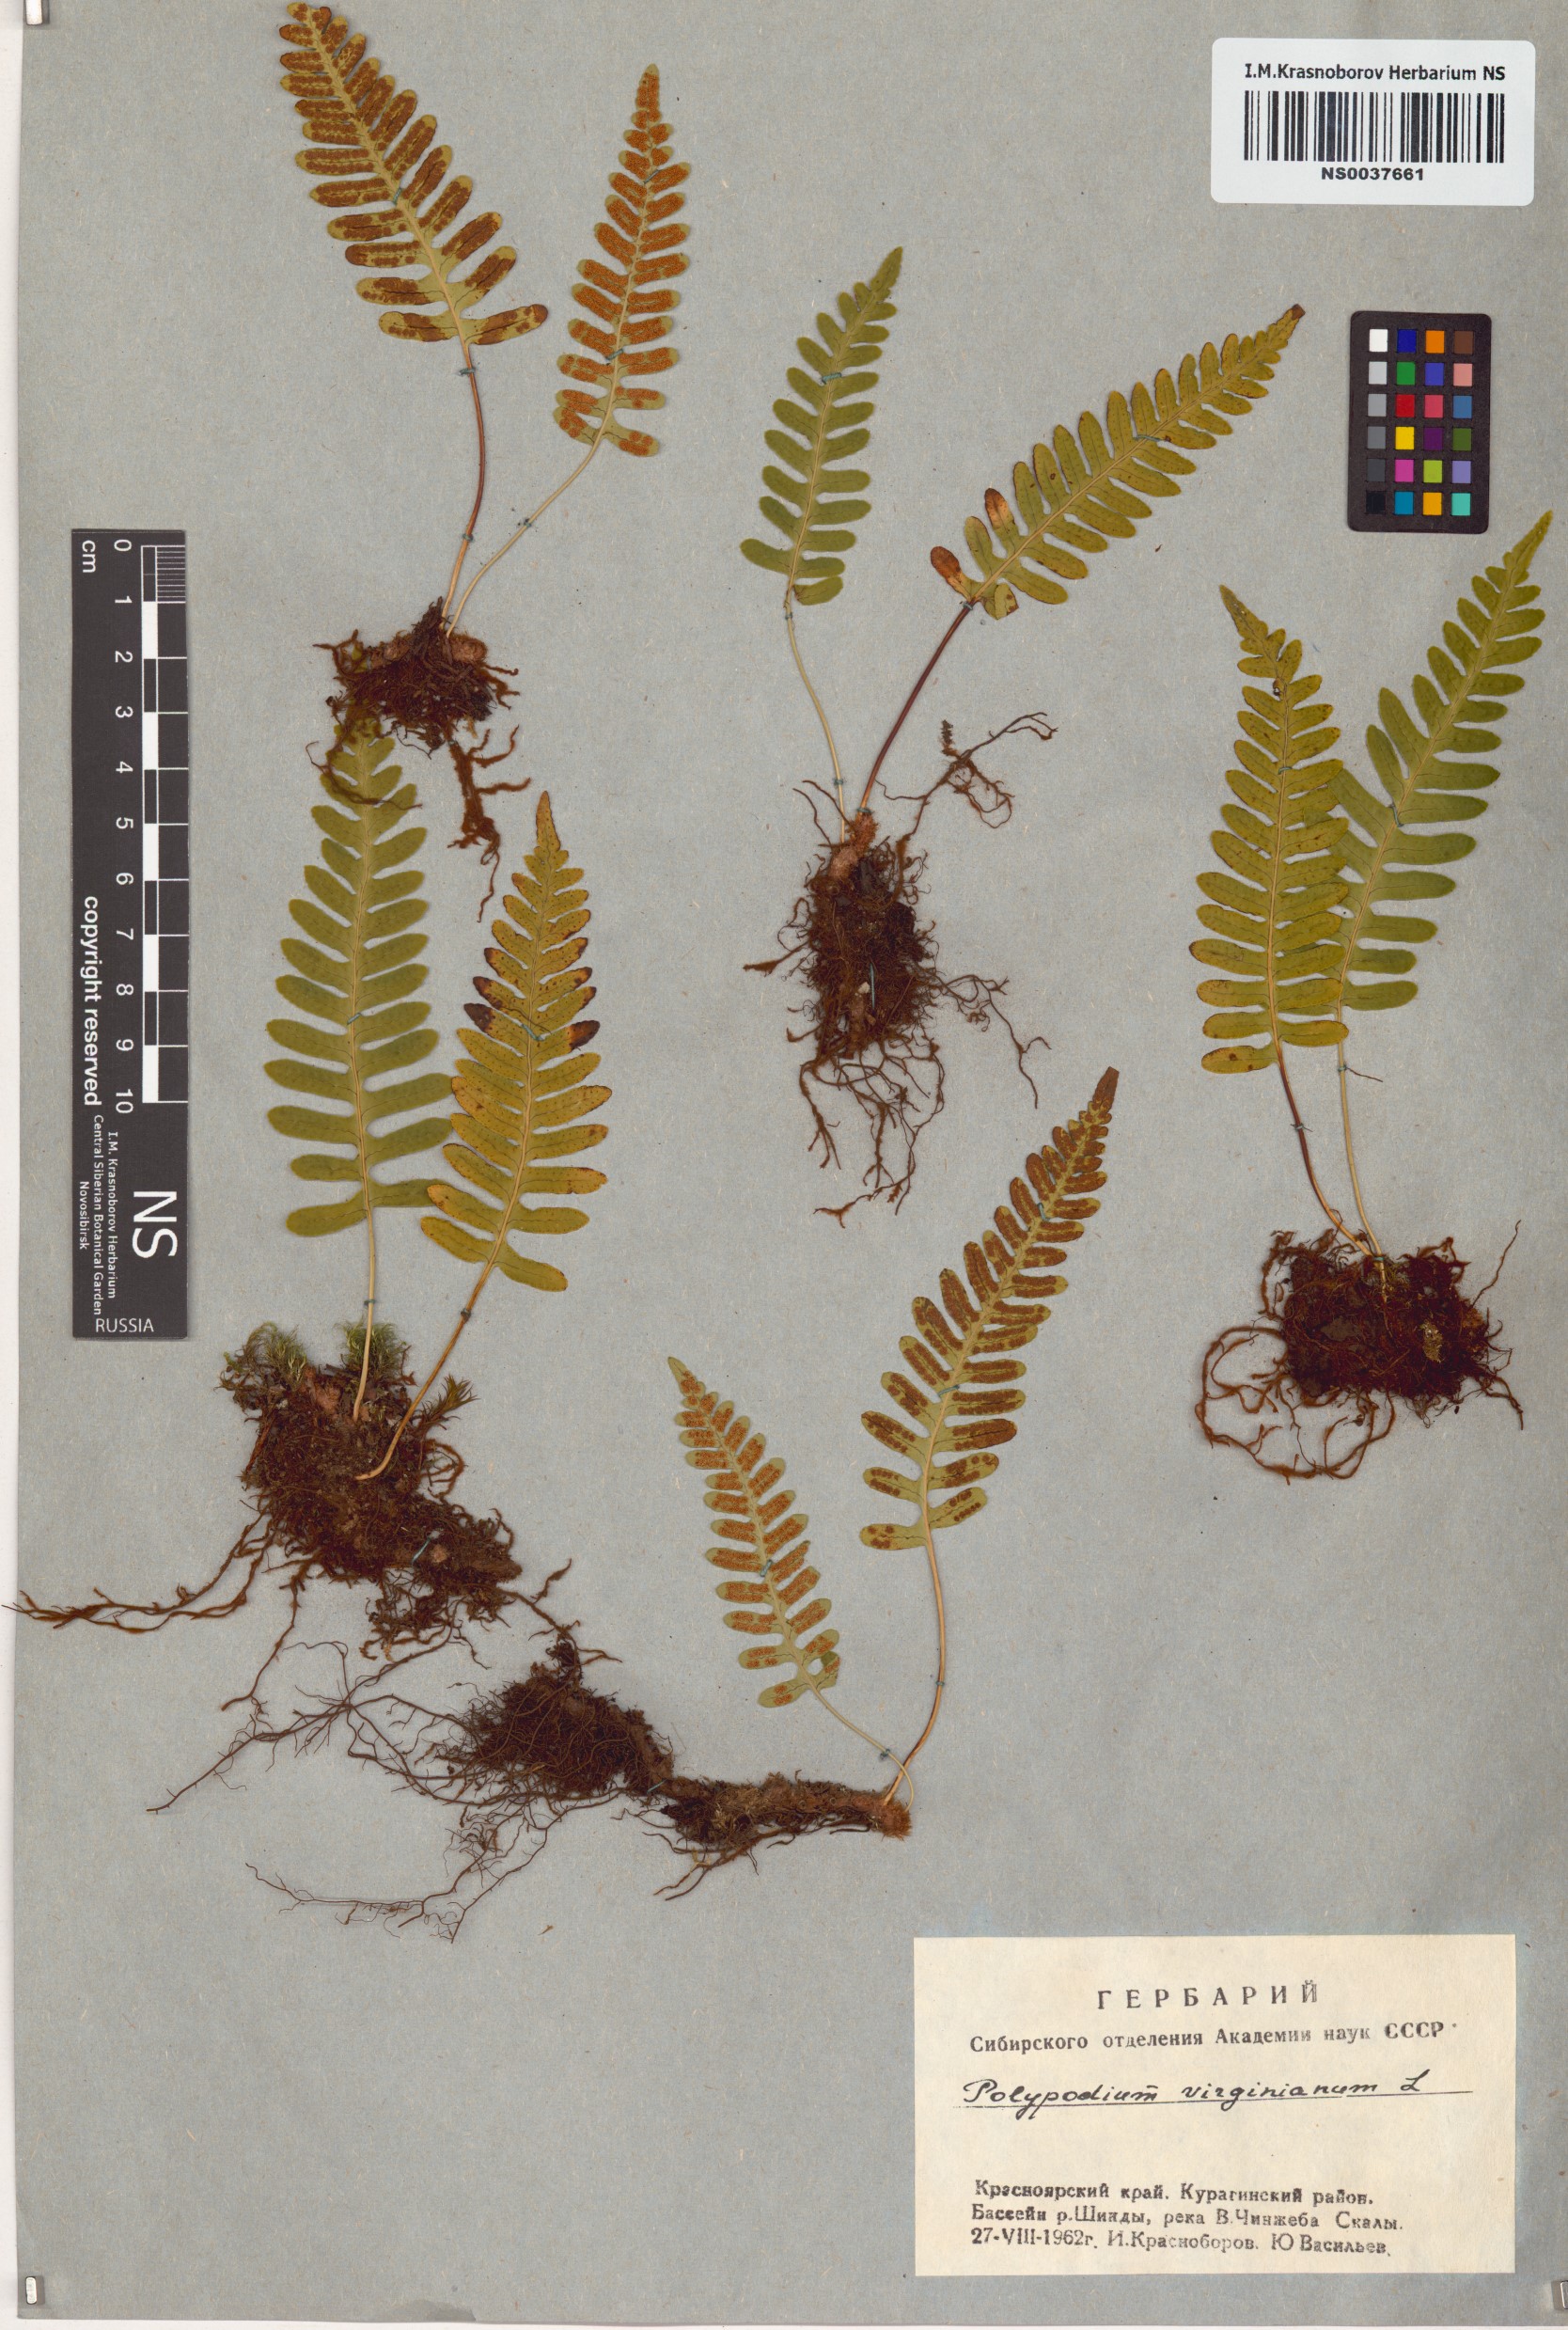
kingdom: Plantae
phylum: Tracheophyta
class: Polypodiopsida
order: Polypodiales
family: Polypodiaceae
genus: Polypodium
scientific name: Polypodium virginianum
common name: American wall fern
